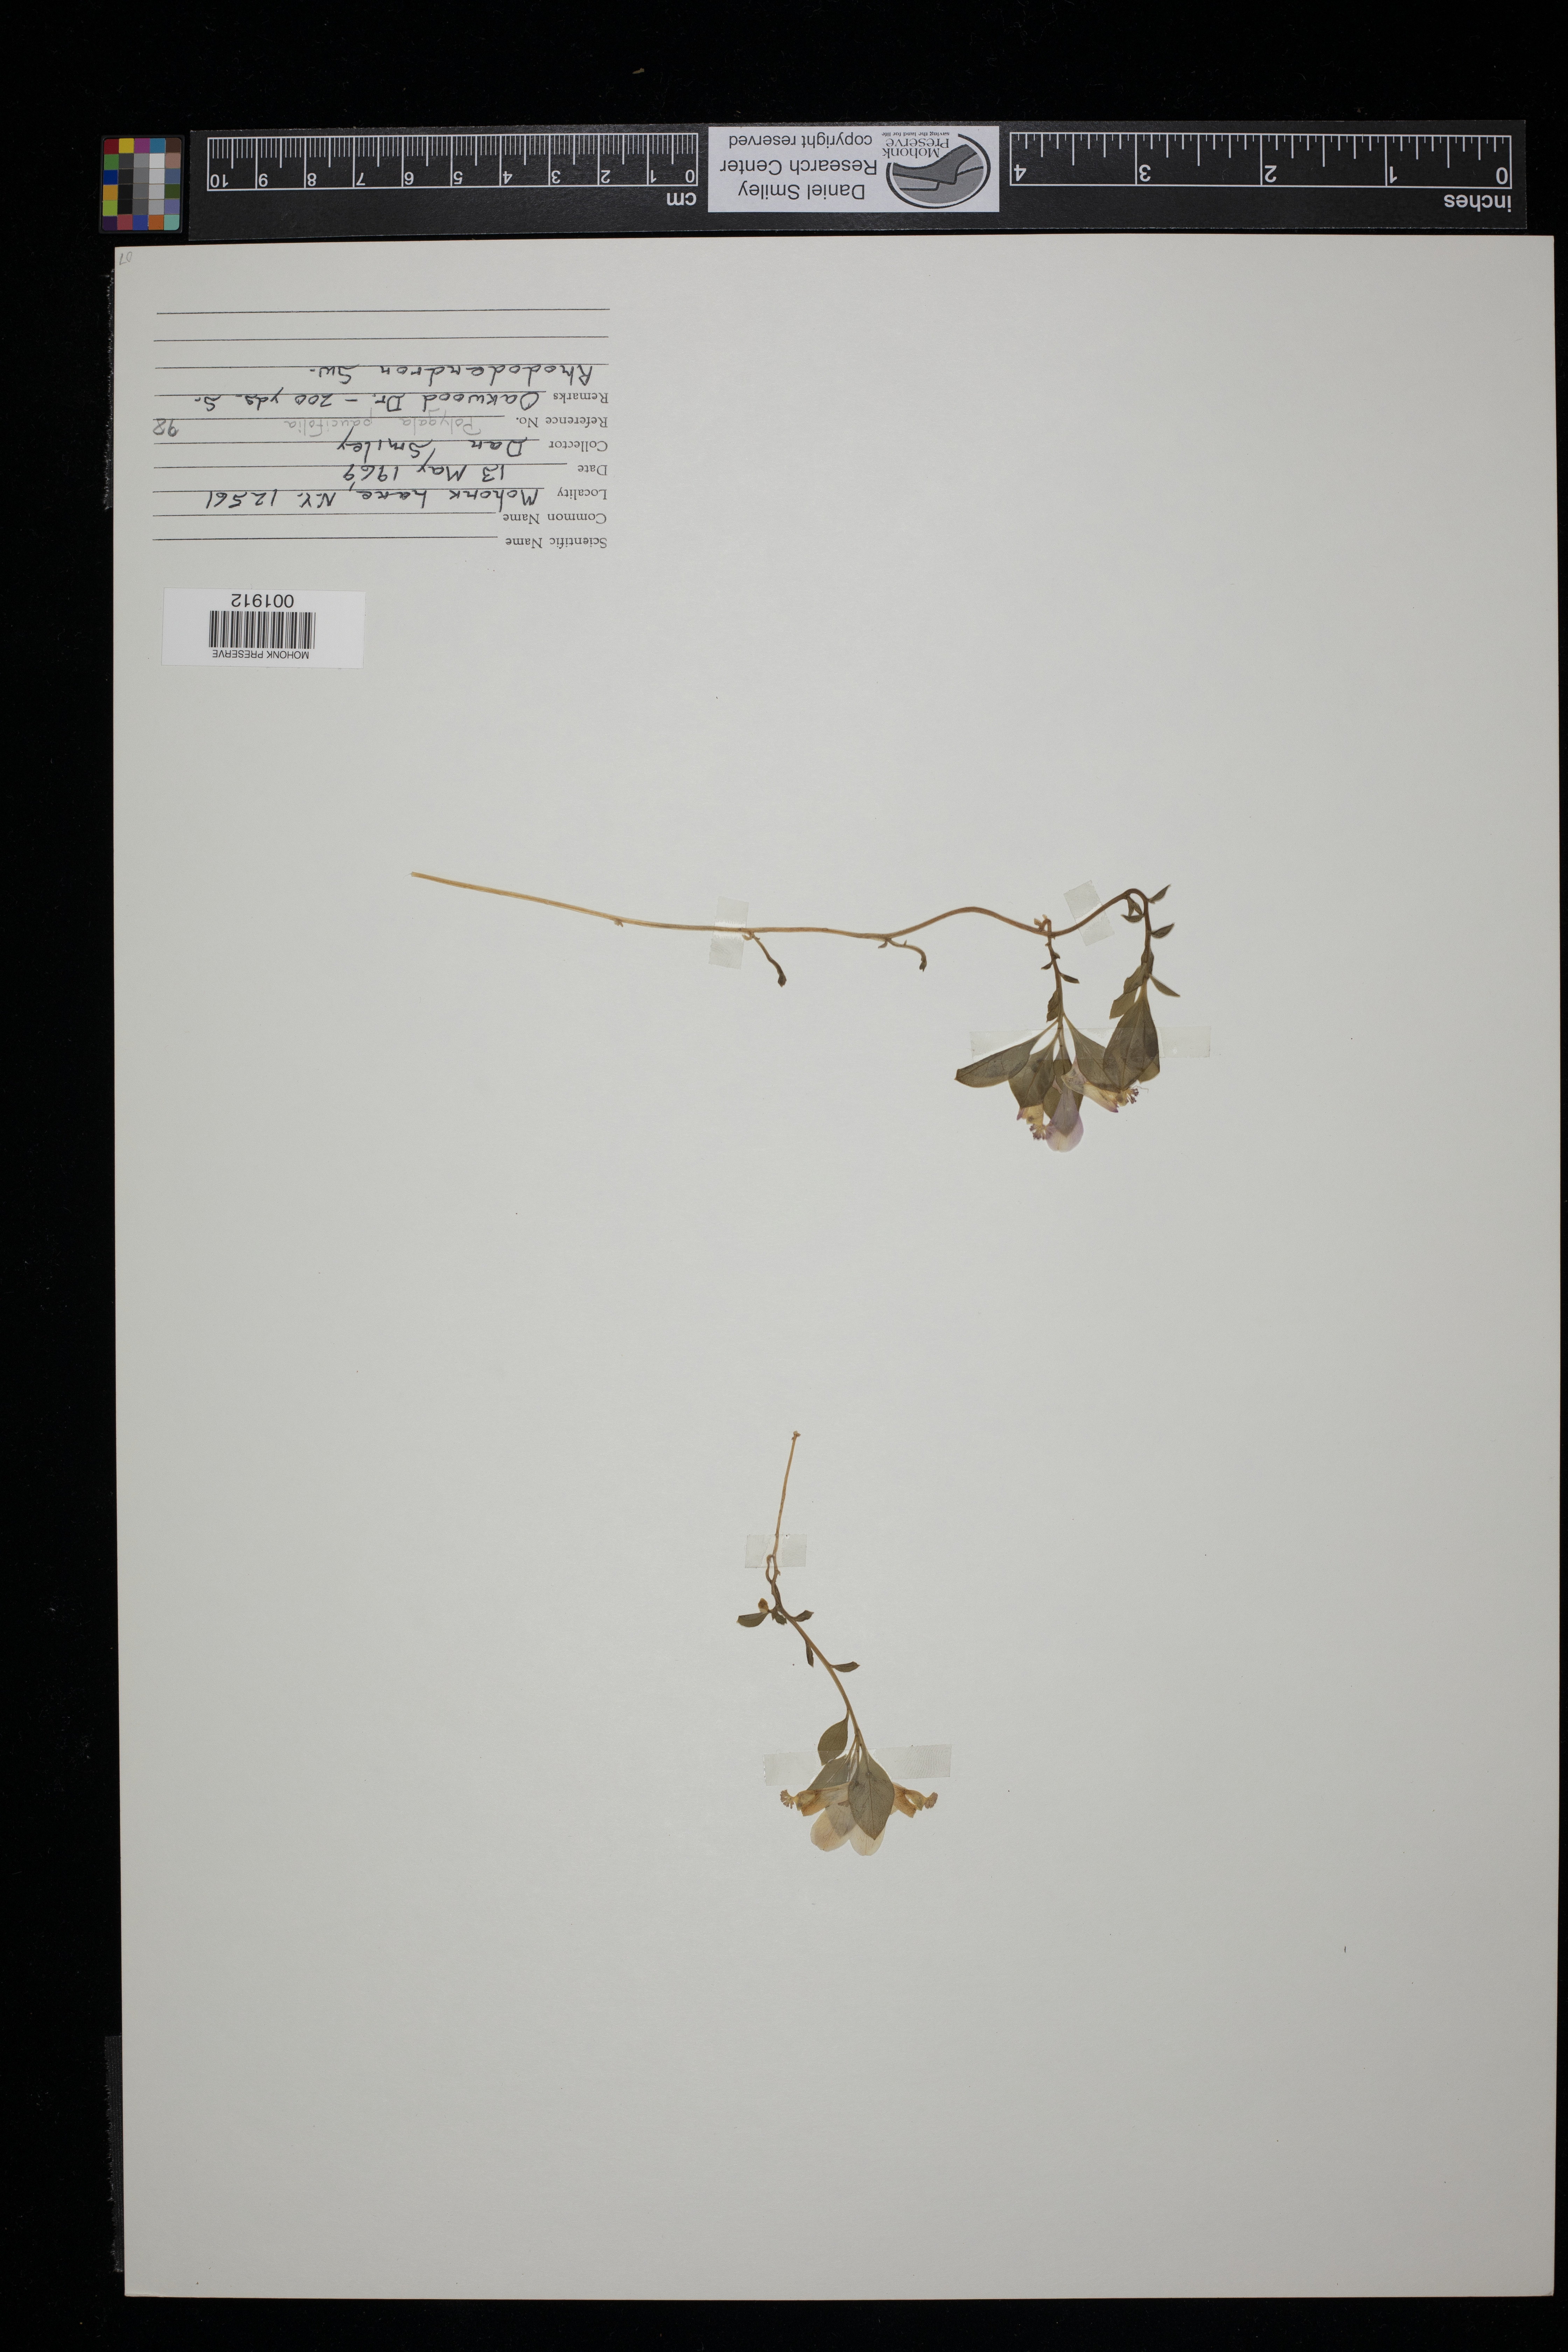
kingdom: Plantae
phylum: Tracheophyta
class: Magnoliopsida
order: Fabales
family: Polygalaceae
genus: Polygaloides
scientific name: Polygaloides paucifolia
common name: Bird-on-the-wing
